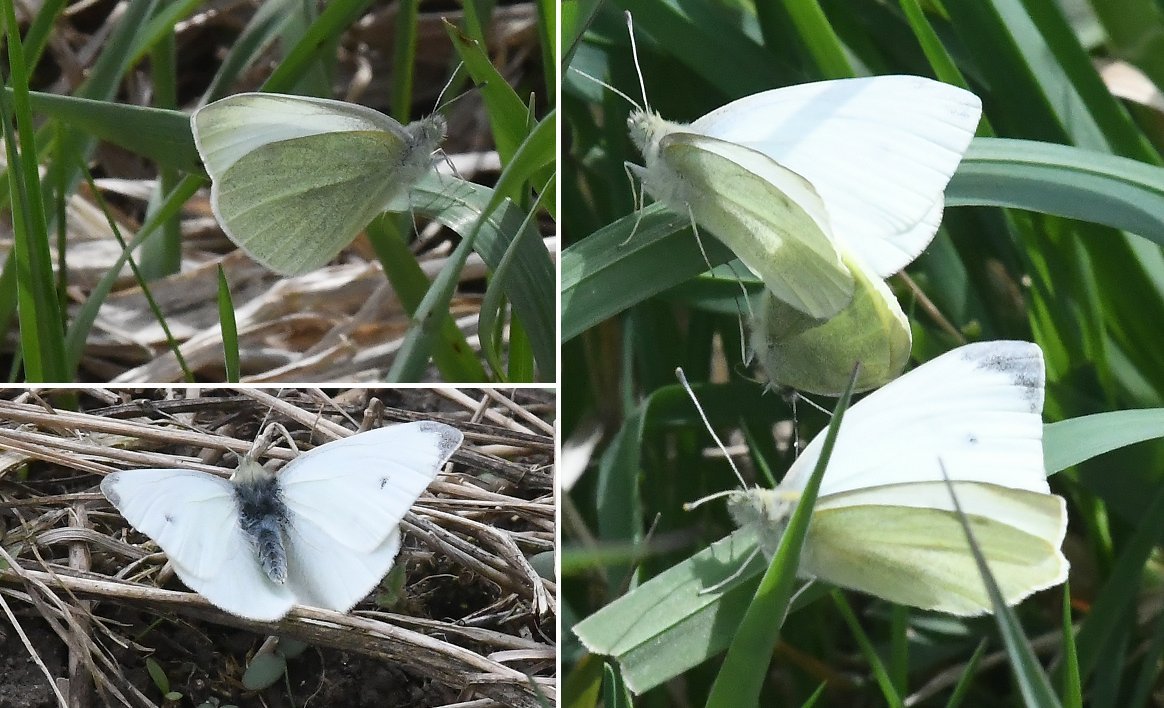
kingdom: Animalia
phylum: Arthropoda
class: Insecta
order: Lepidoptera
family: Pieridae
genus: Pieris
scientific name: Pieris rapae
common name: Cabbage White
